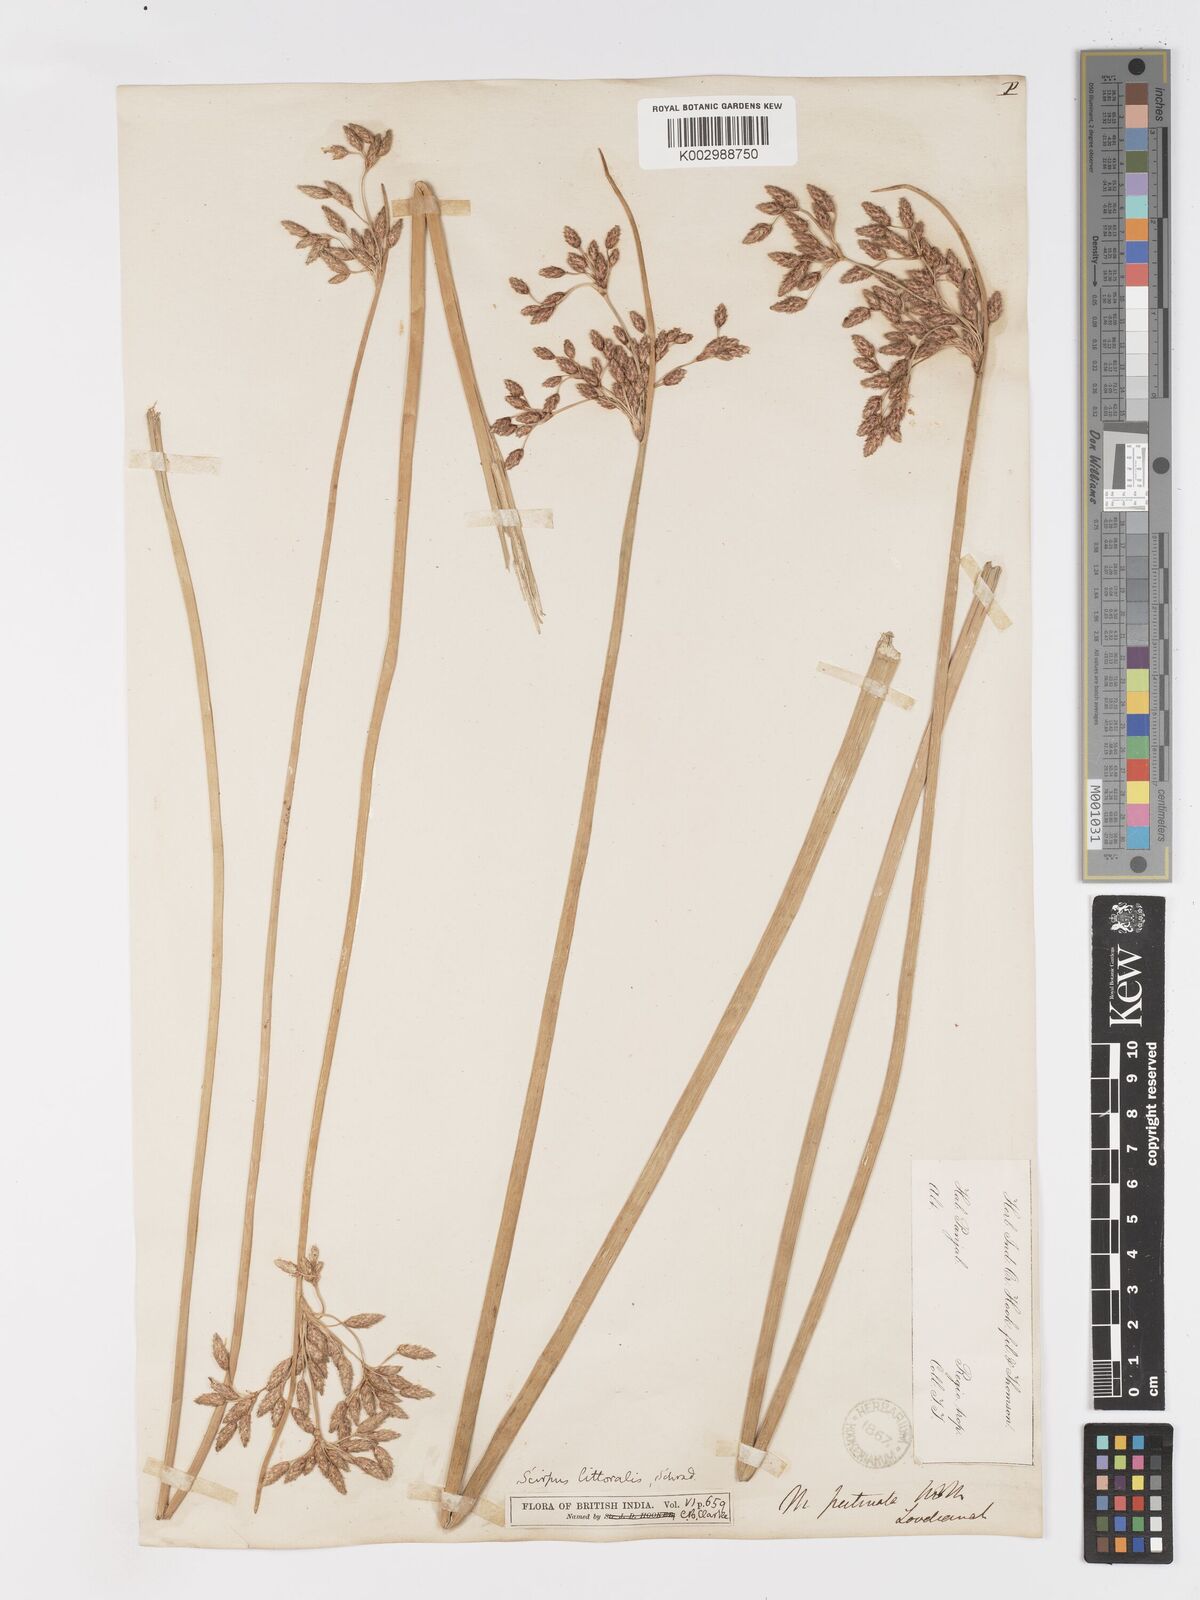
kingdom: Plantae
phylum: Tracheophyta
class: Liliopsida
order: Poales
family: Cyperaceae
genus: Schoenoplectus
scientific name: Schoenoplectus litoralis
